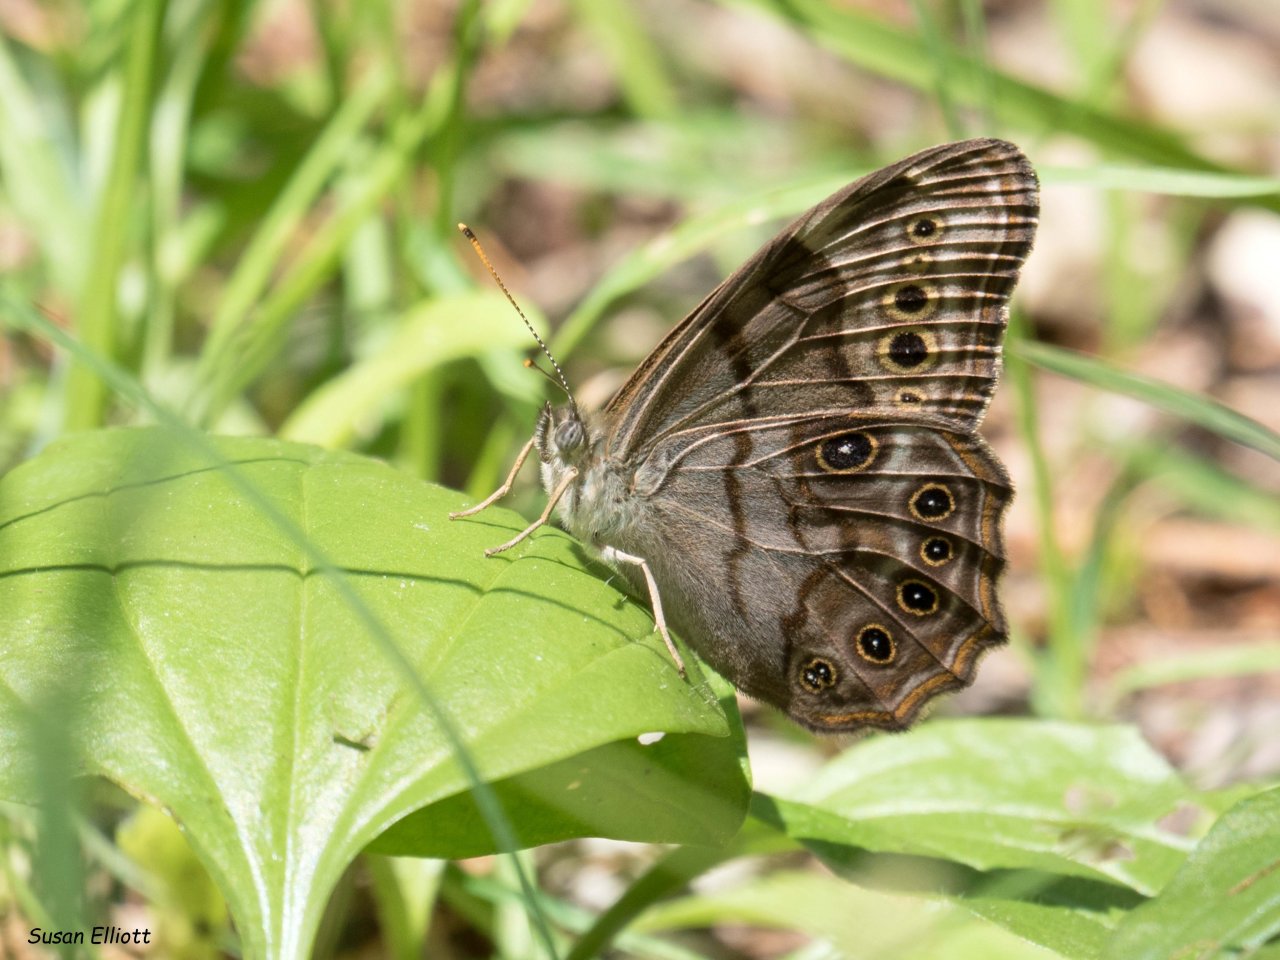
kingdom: Animalia
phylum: Arthropoda
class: Insecta
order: Lepidoptera
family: Nymphalidae
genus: Lethe
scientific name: Lethe anthedon
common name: Northern Pearly-Eye
